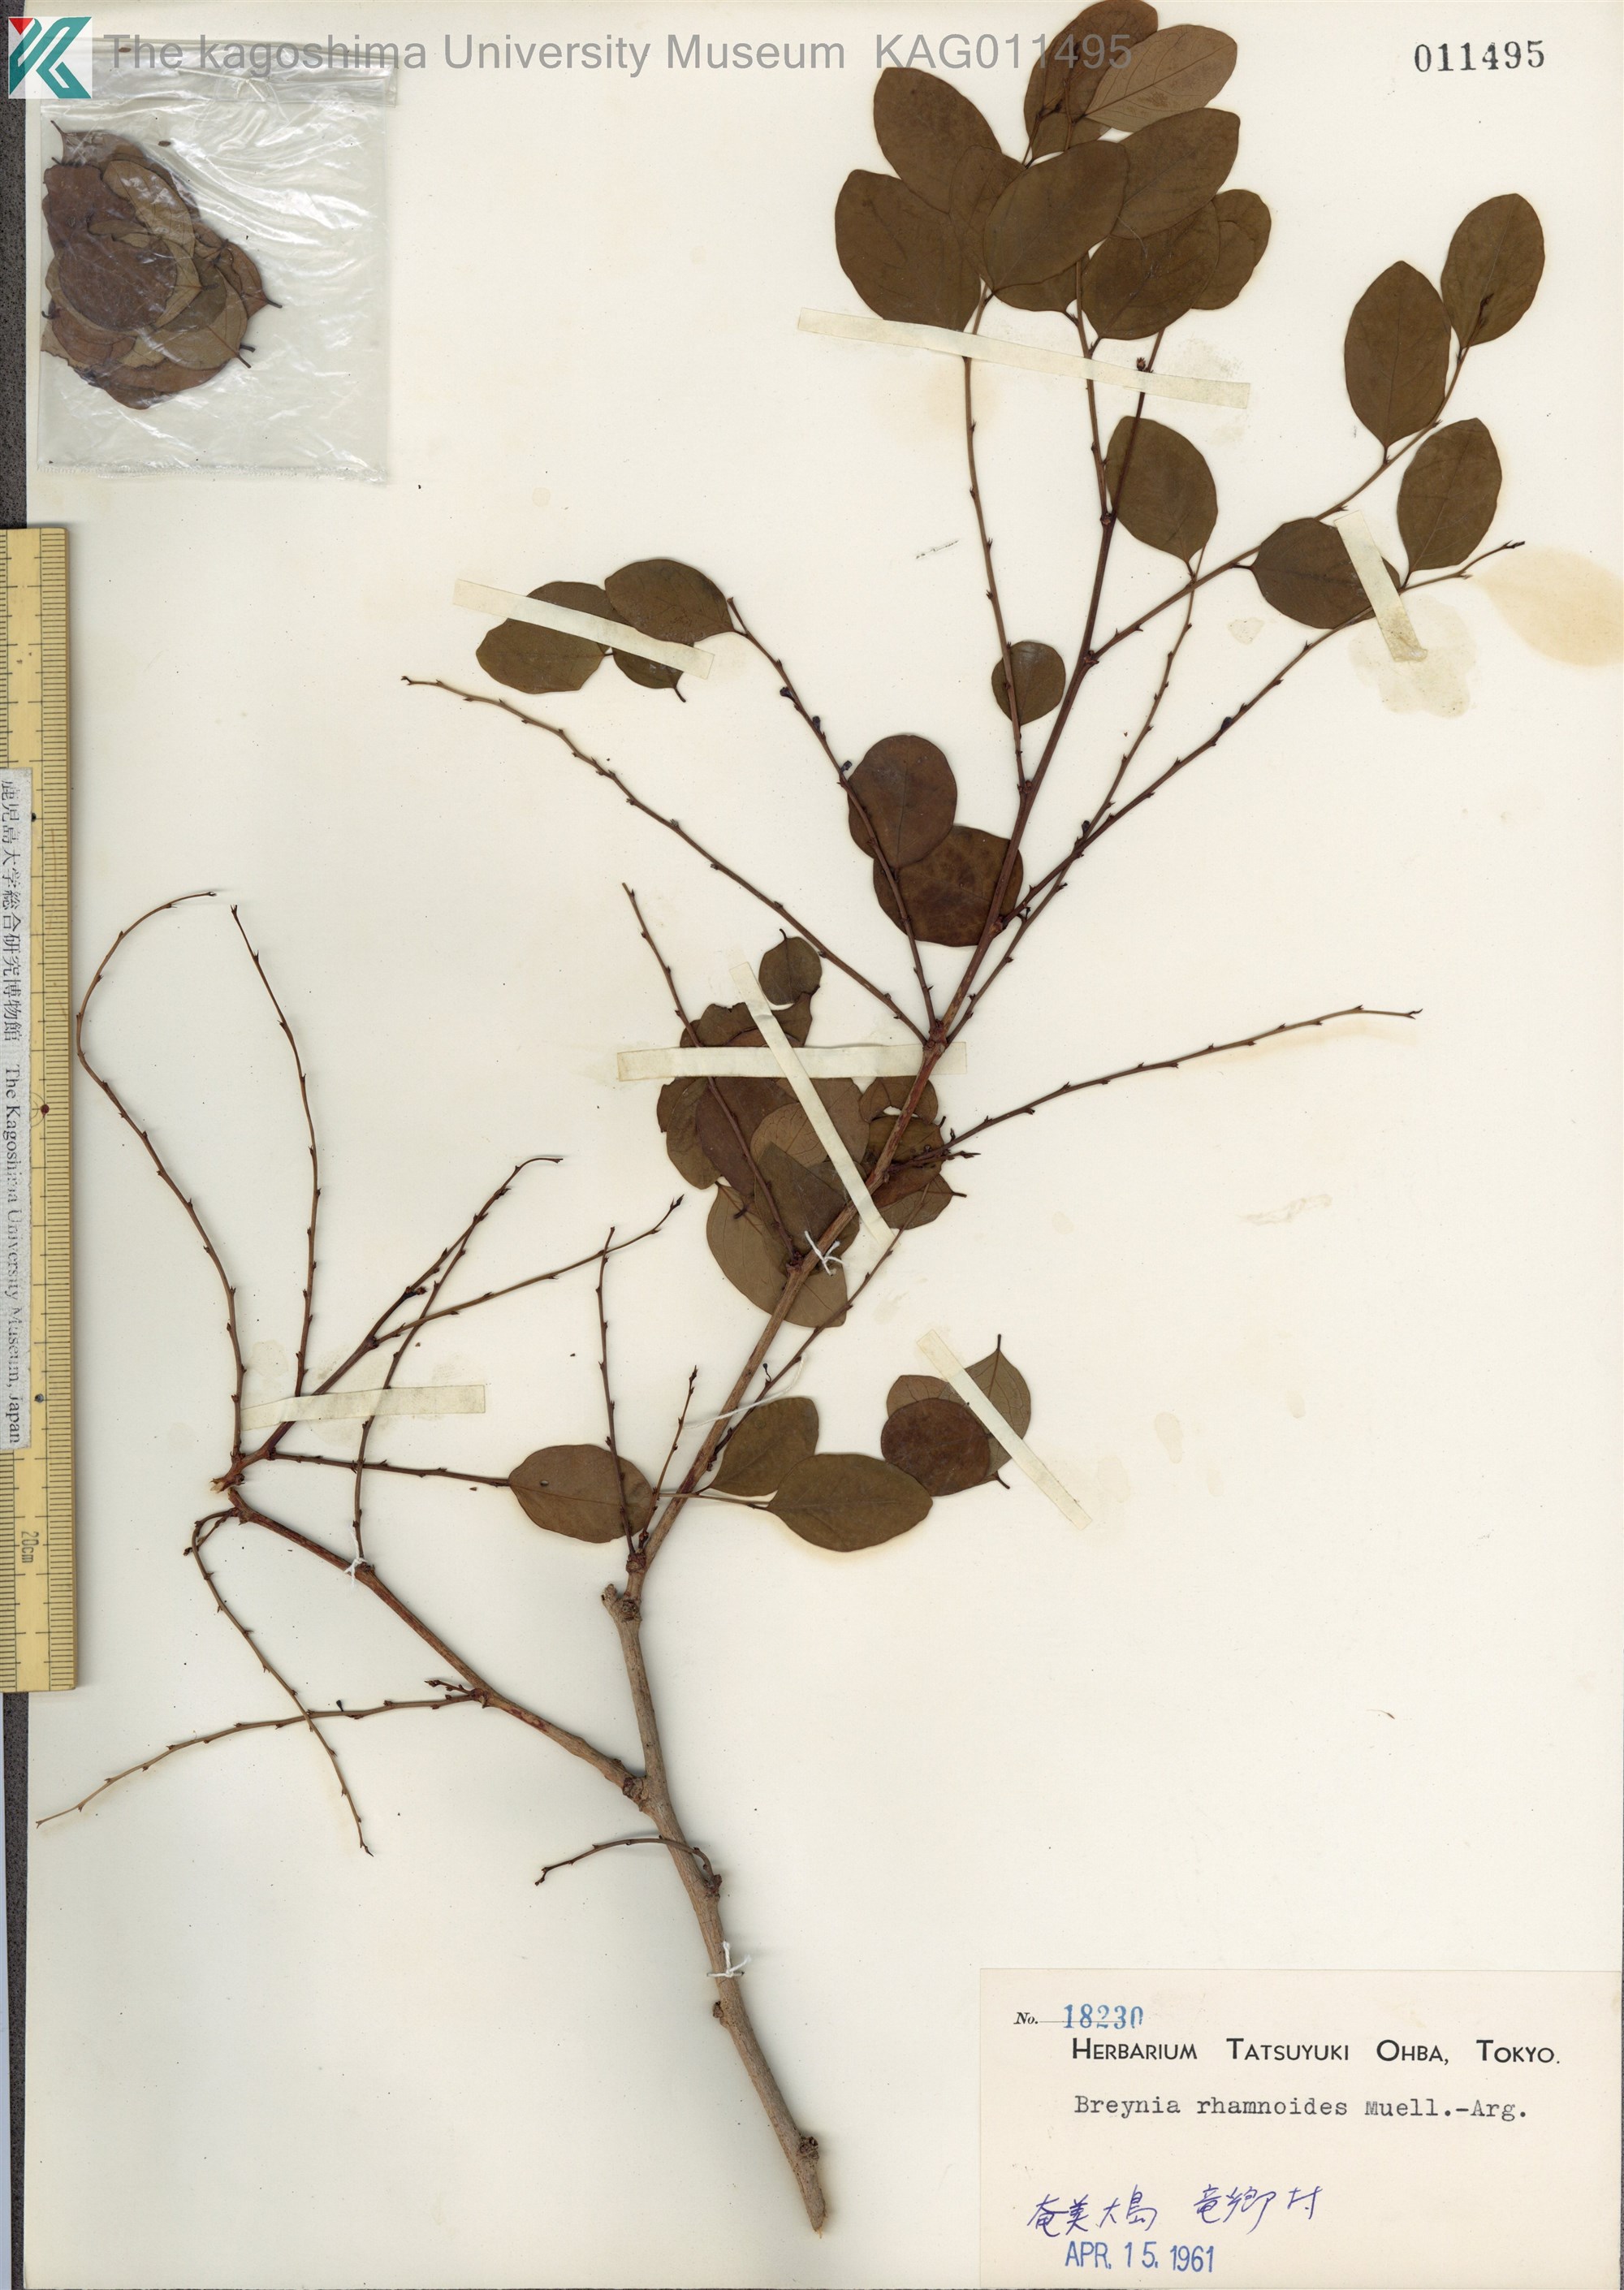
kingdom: Plantae
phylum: Tracheophyta
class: Magnoliopsida
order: Malpighiales
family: Phyllanthaceae
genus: Breynia
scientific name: Breynia vitis-idaea
